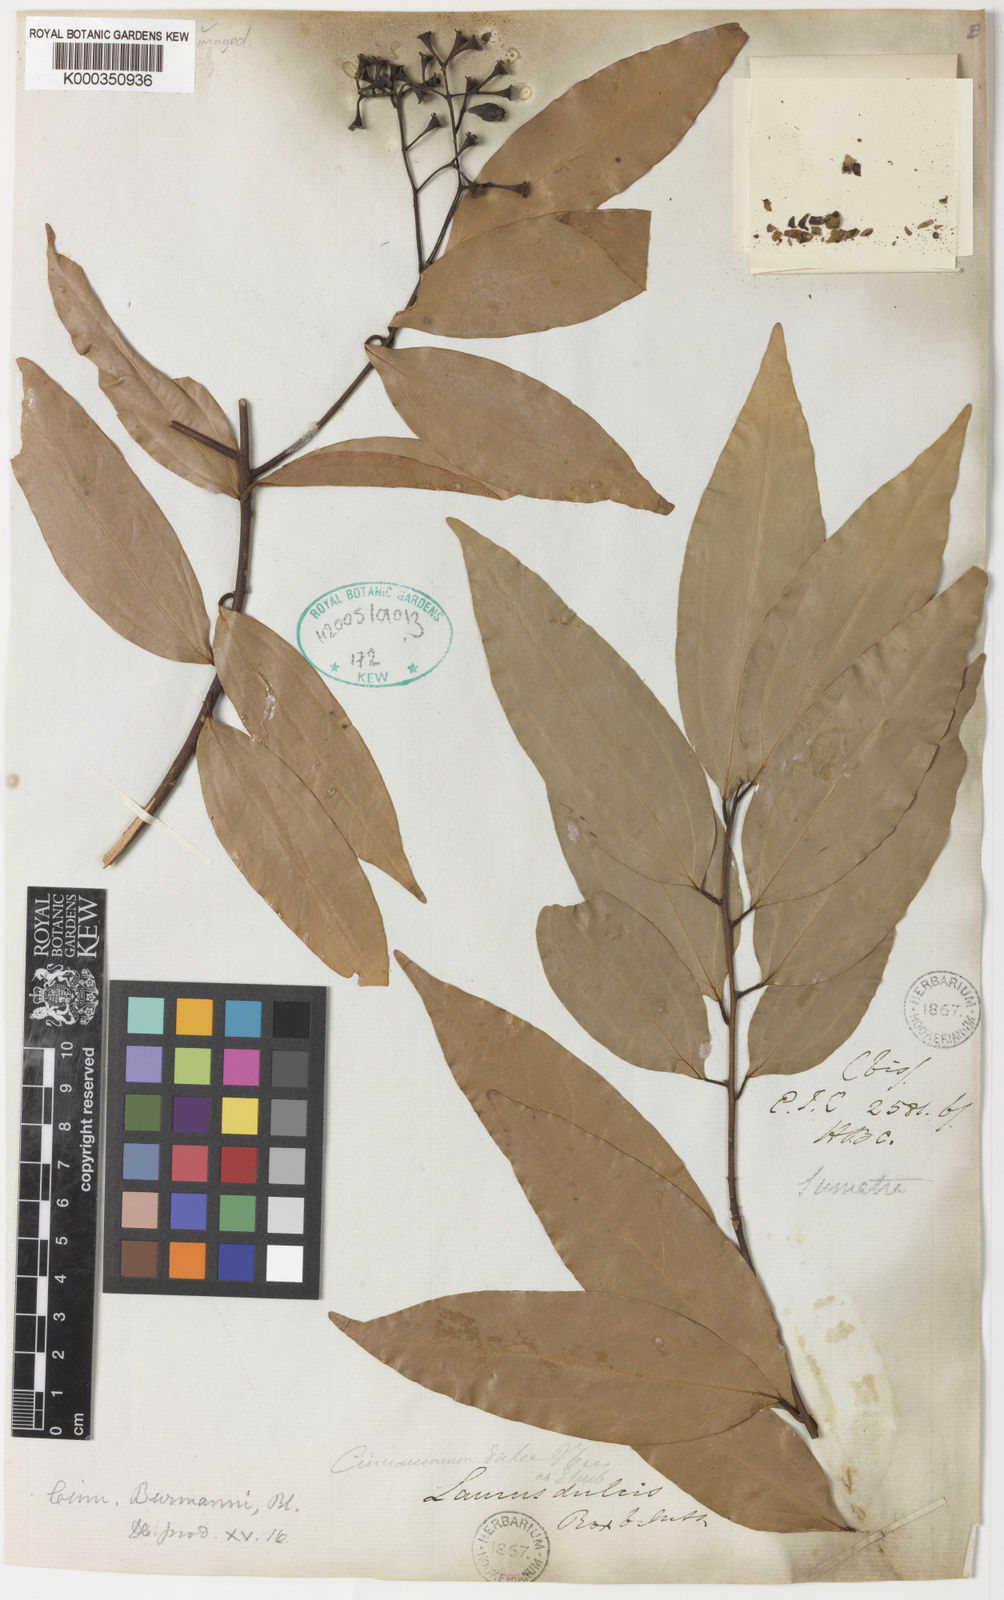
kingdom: Plantae
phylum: Tracheophyta
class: Magnoliopsida
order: Laurales
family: Lauraceae
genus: Cinnamomum
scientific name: Cinnamomum burmanni
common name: Padang cassia
